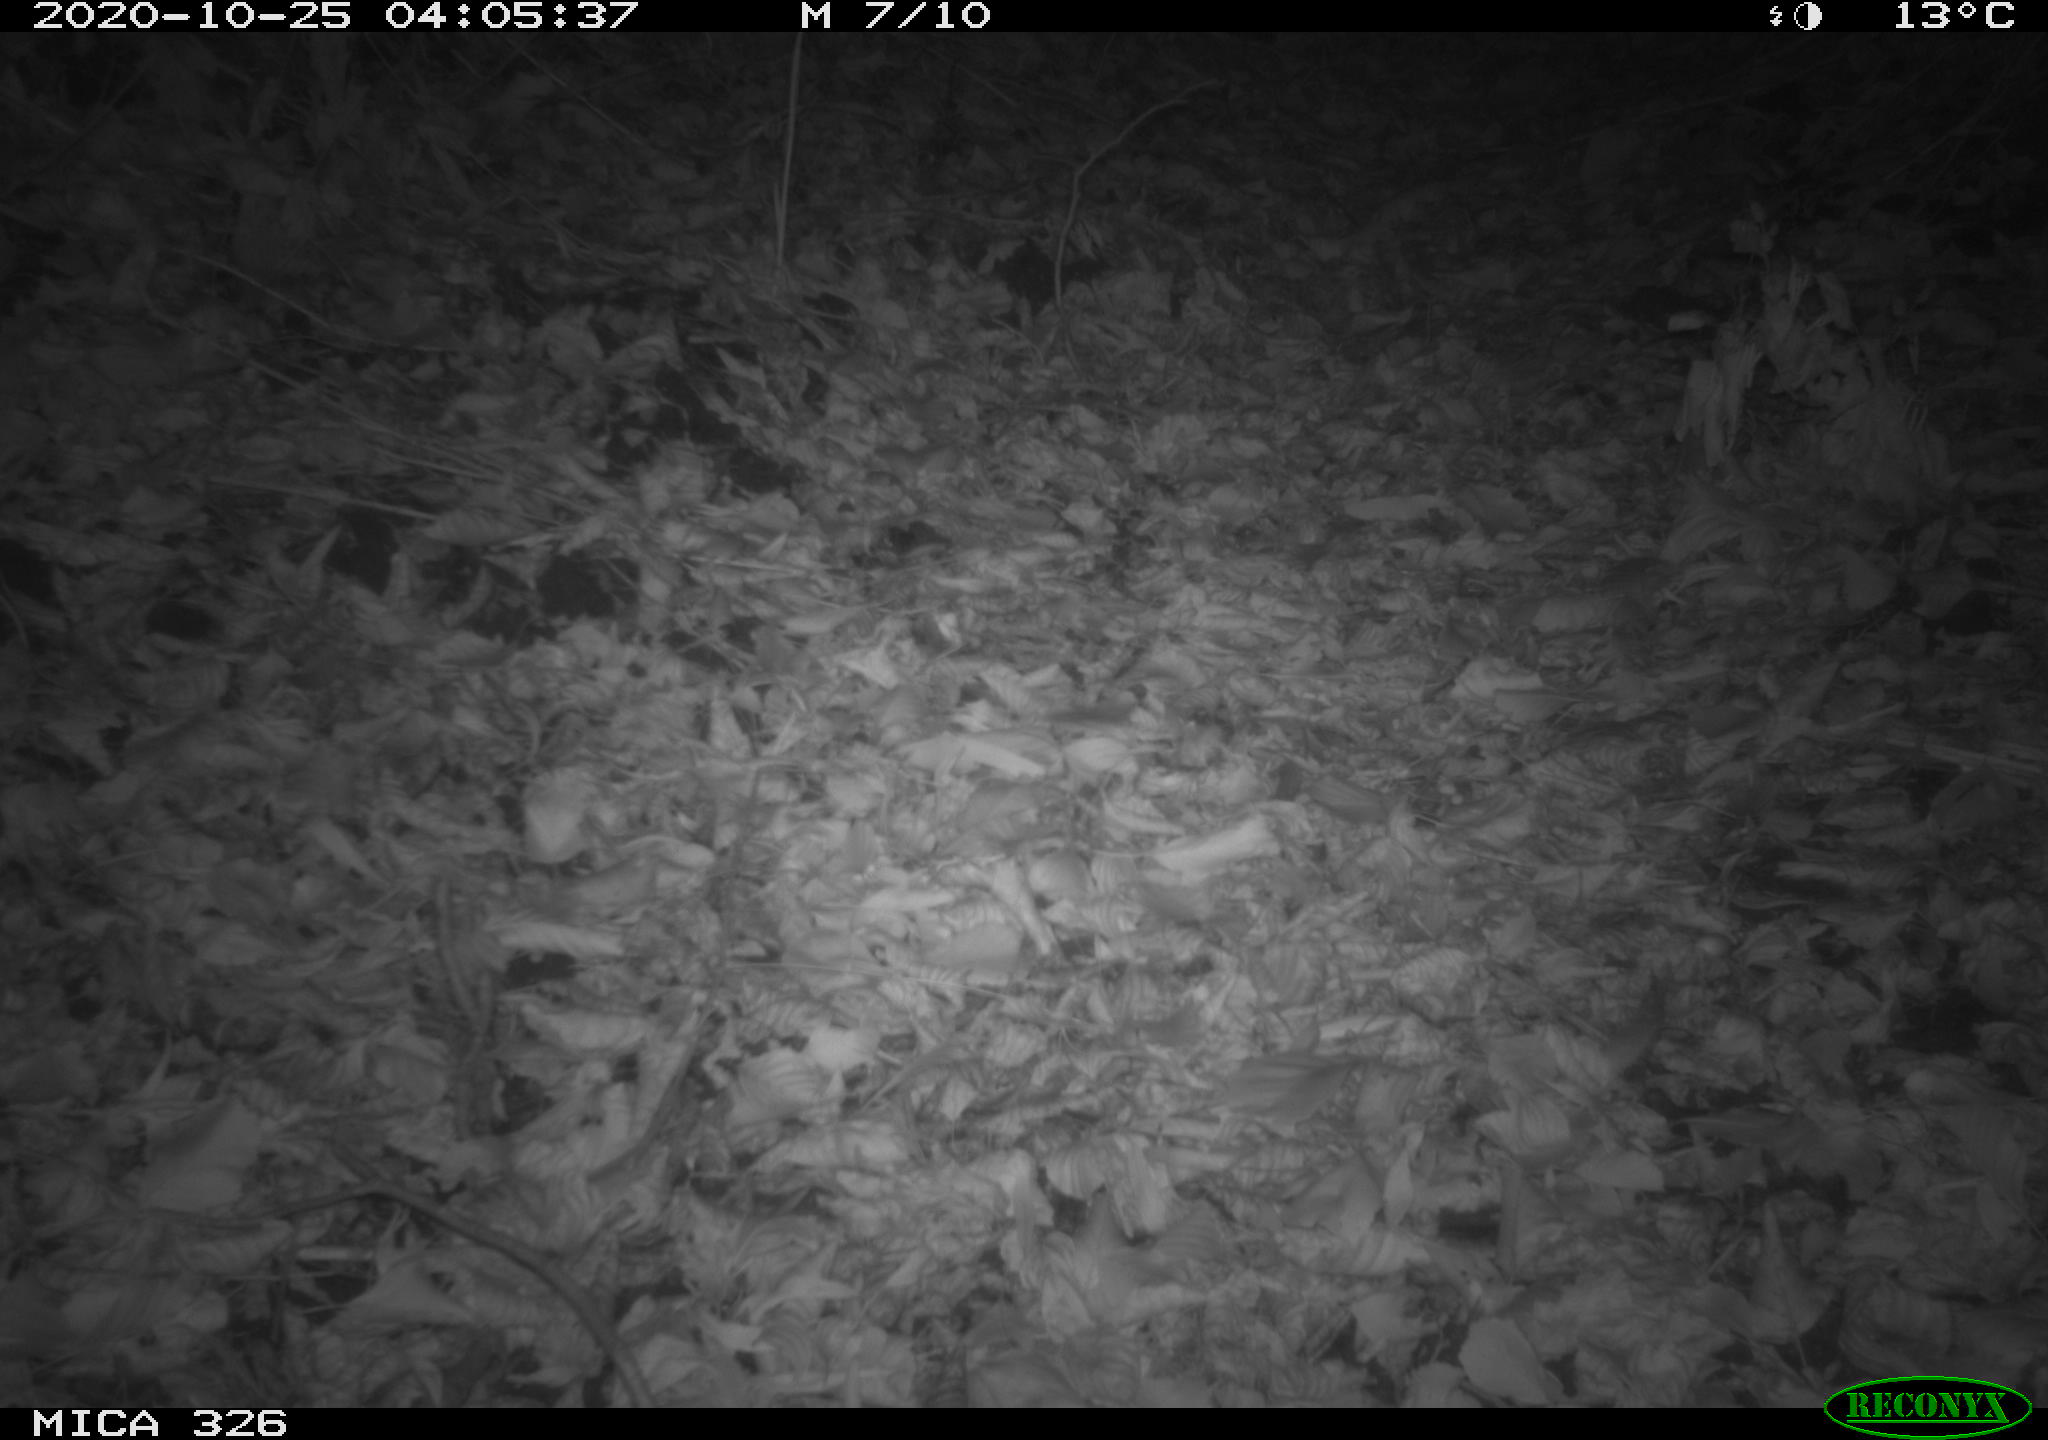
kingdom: Animalia
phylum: Chordata
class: Mammalia
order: Rodentia
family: Muridae
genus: Rattus
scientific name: Rattus norvegicus
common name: Brown rat
